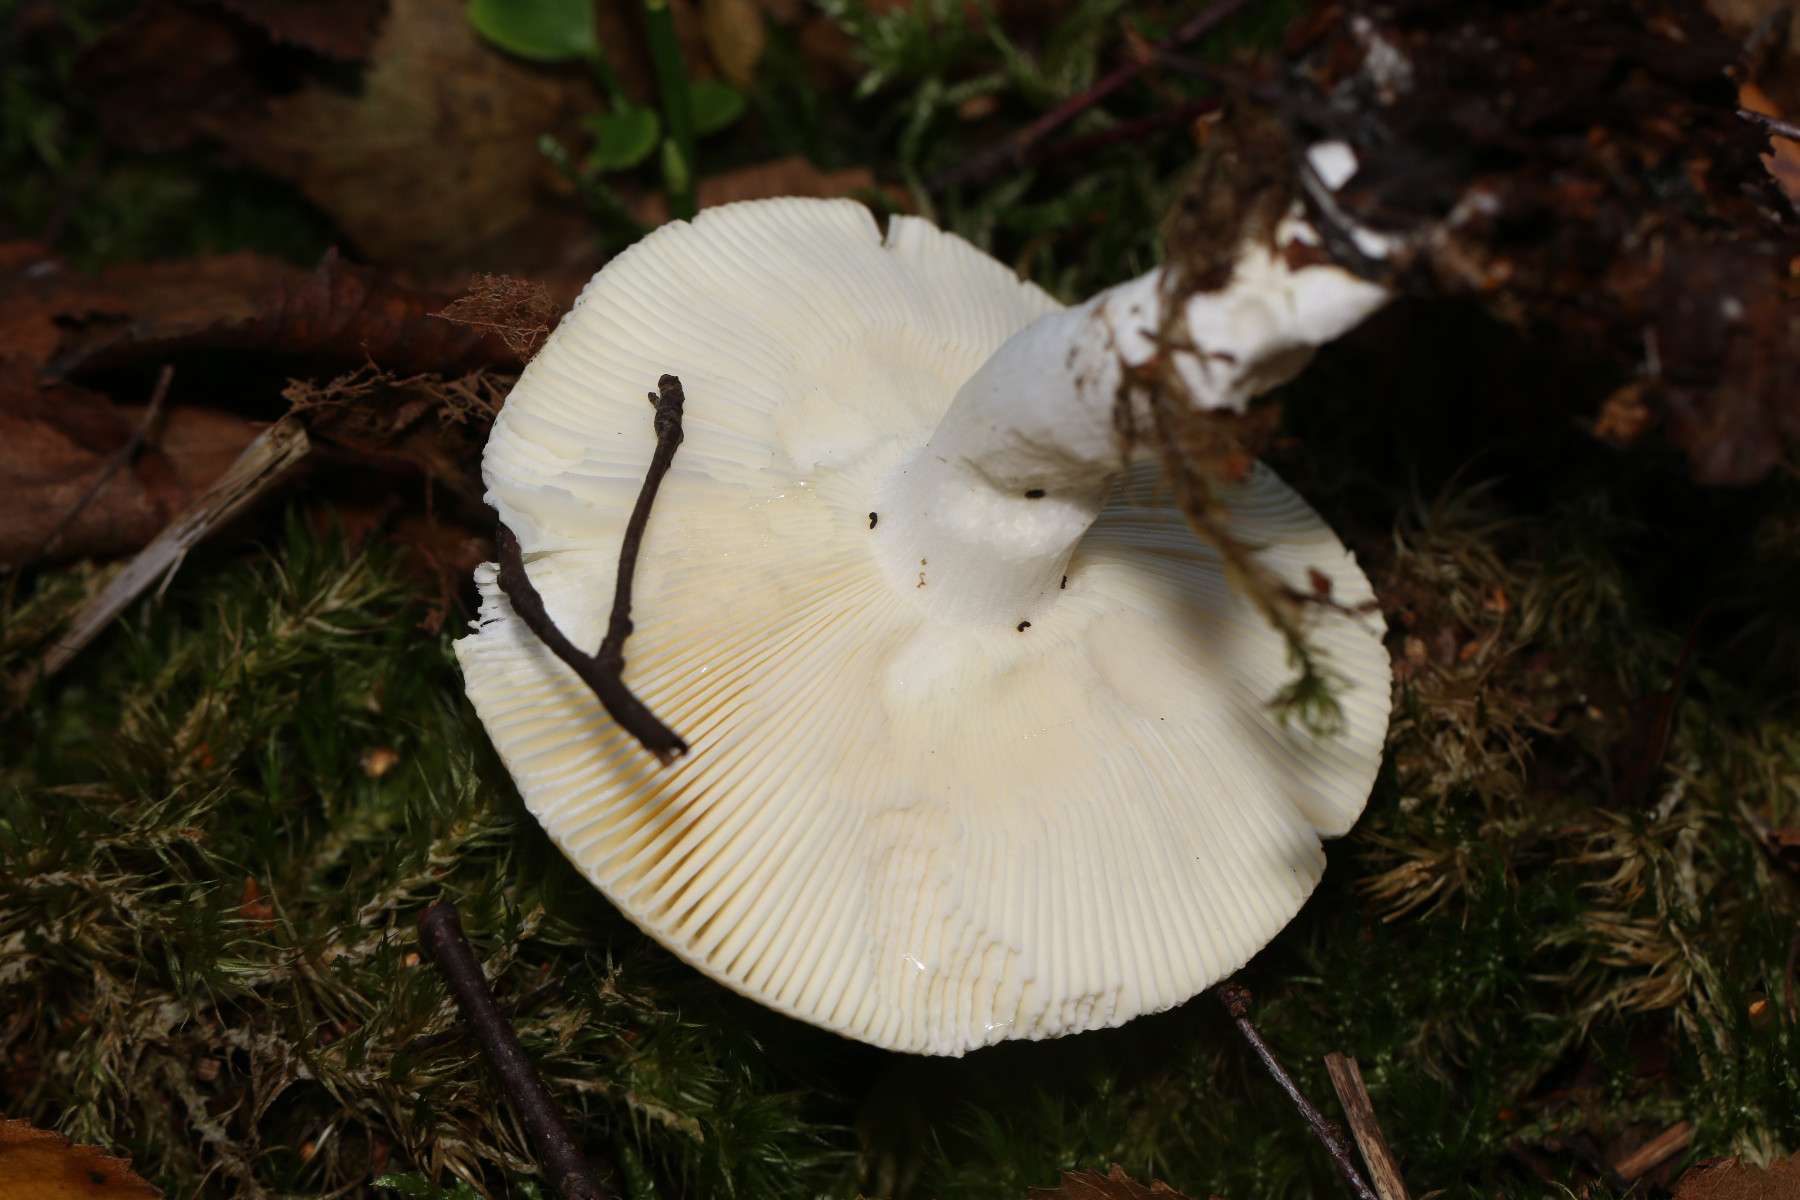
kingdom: Fungi
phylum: Basidiomycota
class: Agaricomycetes
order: Russulales
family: Russulaceae
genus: Russula
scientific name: Russula claroflava
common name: birke-skørhat
